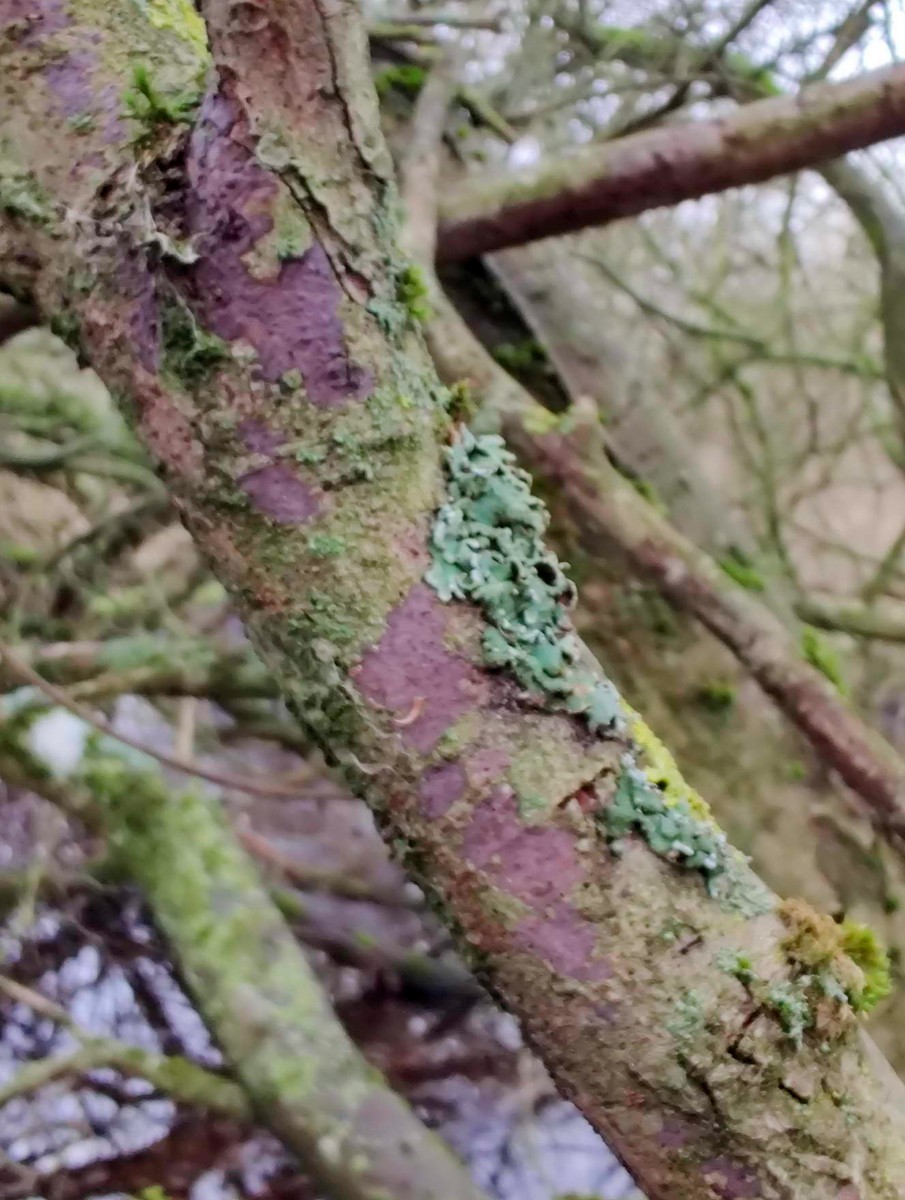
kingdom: Fungi
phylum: Basidiomycota
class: Agaricomycetes
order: Russulales
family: Peniophoraceae
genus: Peniophora
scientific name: Peniophora violaceolivida
